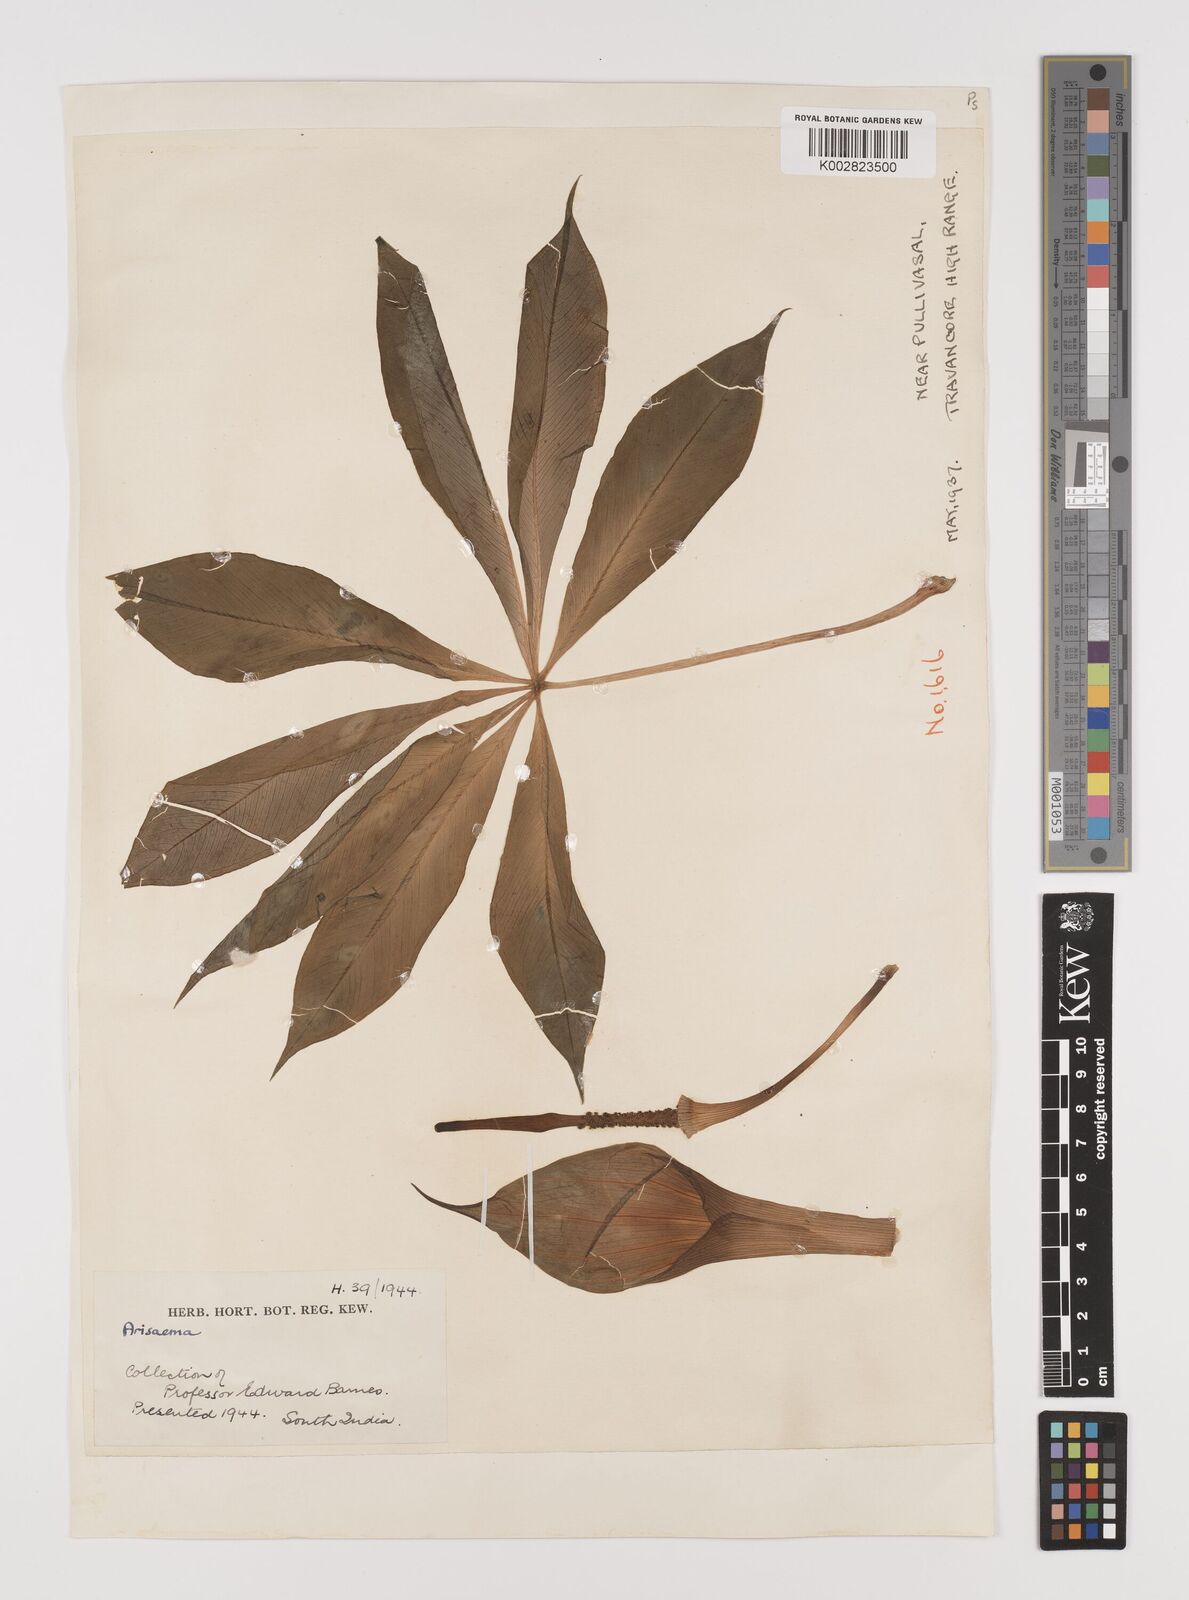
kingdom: Plantae
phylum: Tracheophyta
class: Liliopsida
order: Alismatales
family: Araceae
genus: Arisaema
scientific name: Arisaema
